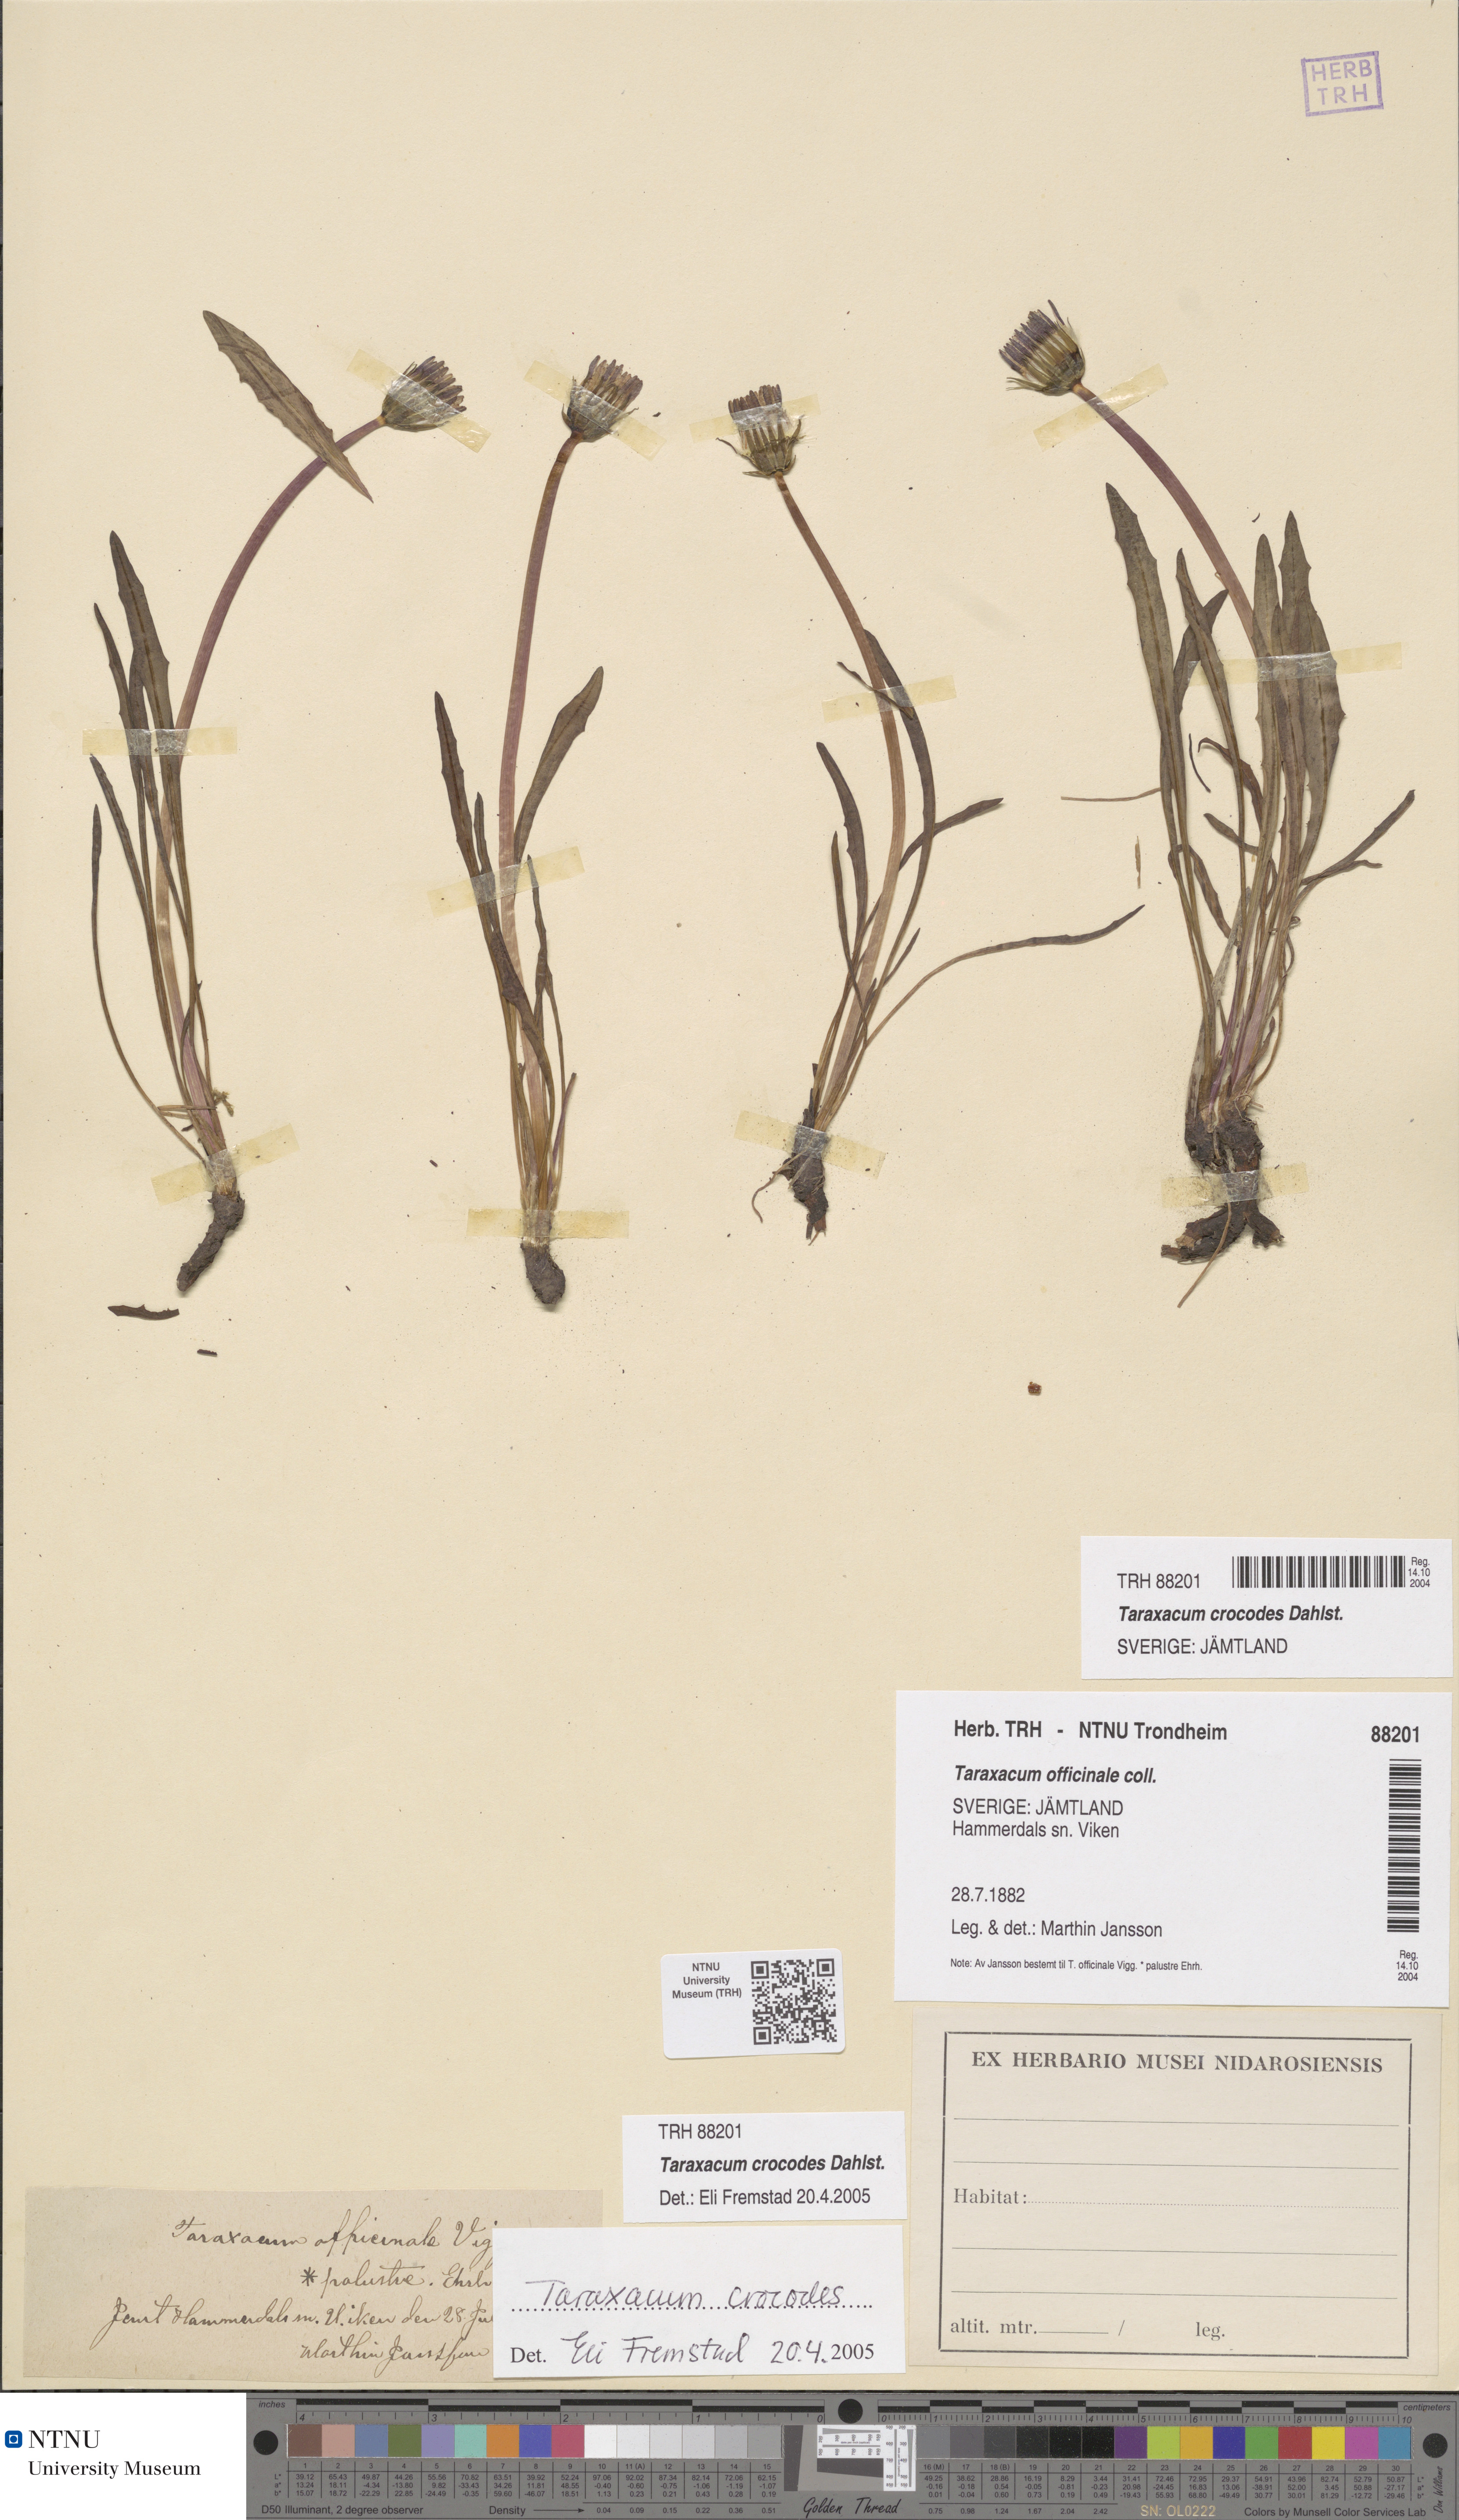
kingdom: Plantae
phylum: Tracheophyta
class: Magnoliopsida
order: Asterales
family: Asteraceae
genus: Taraxacum
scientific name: Taraxacum crocodes
